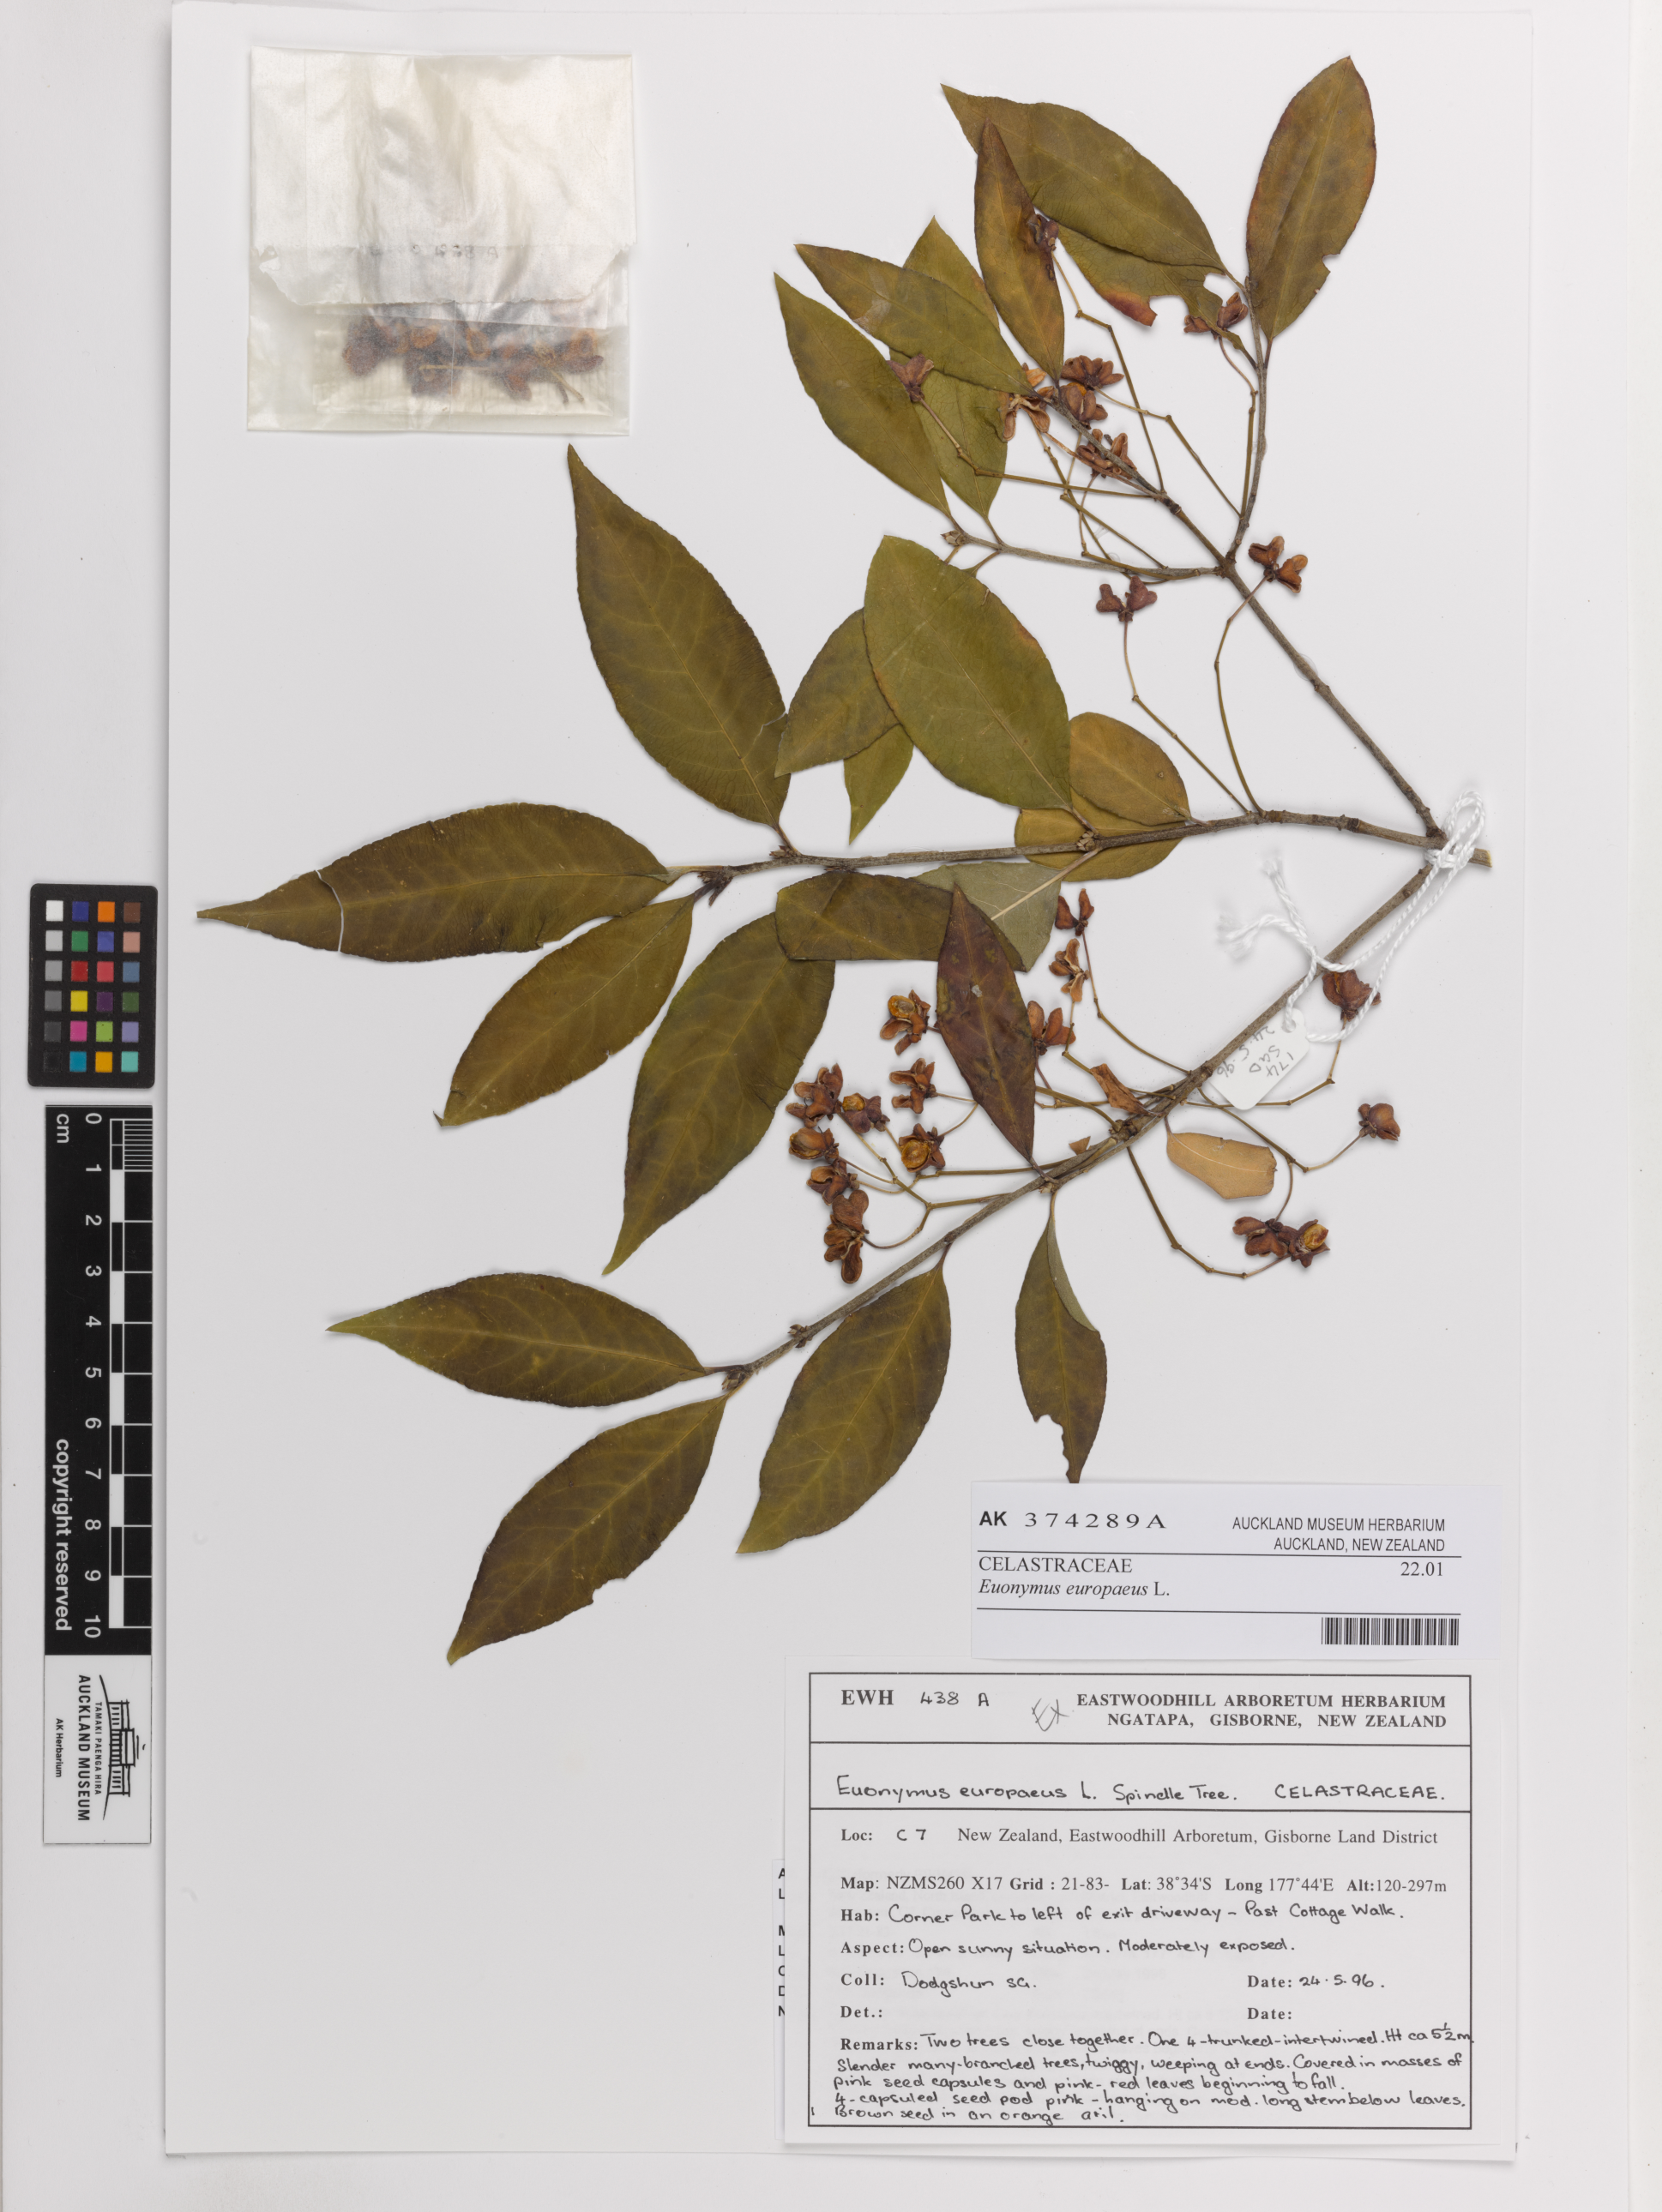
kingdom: Plantae
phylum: Tracheophyta
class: Magnoliopsida
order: Celastrales
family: Celastraceae
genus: Euonymus
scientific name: Euonymus europaeus
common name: Spindle
